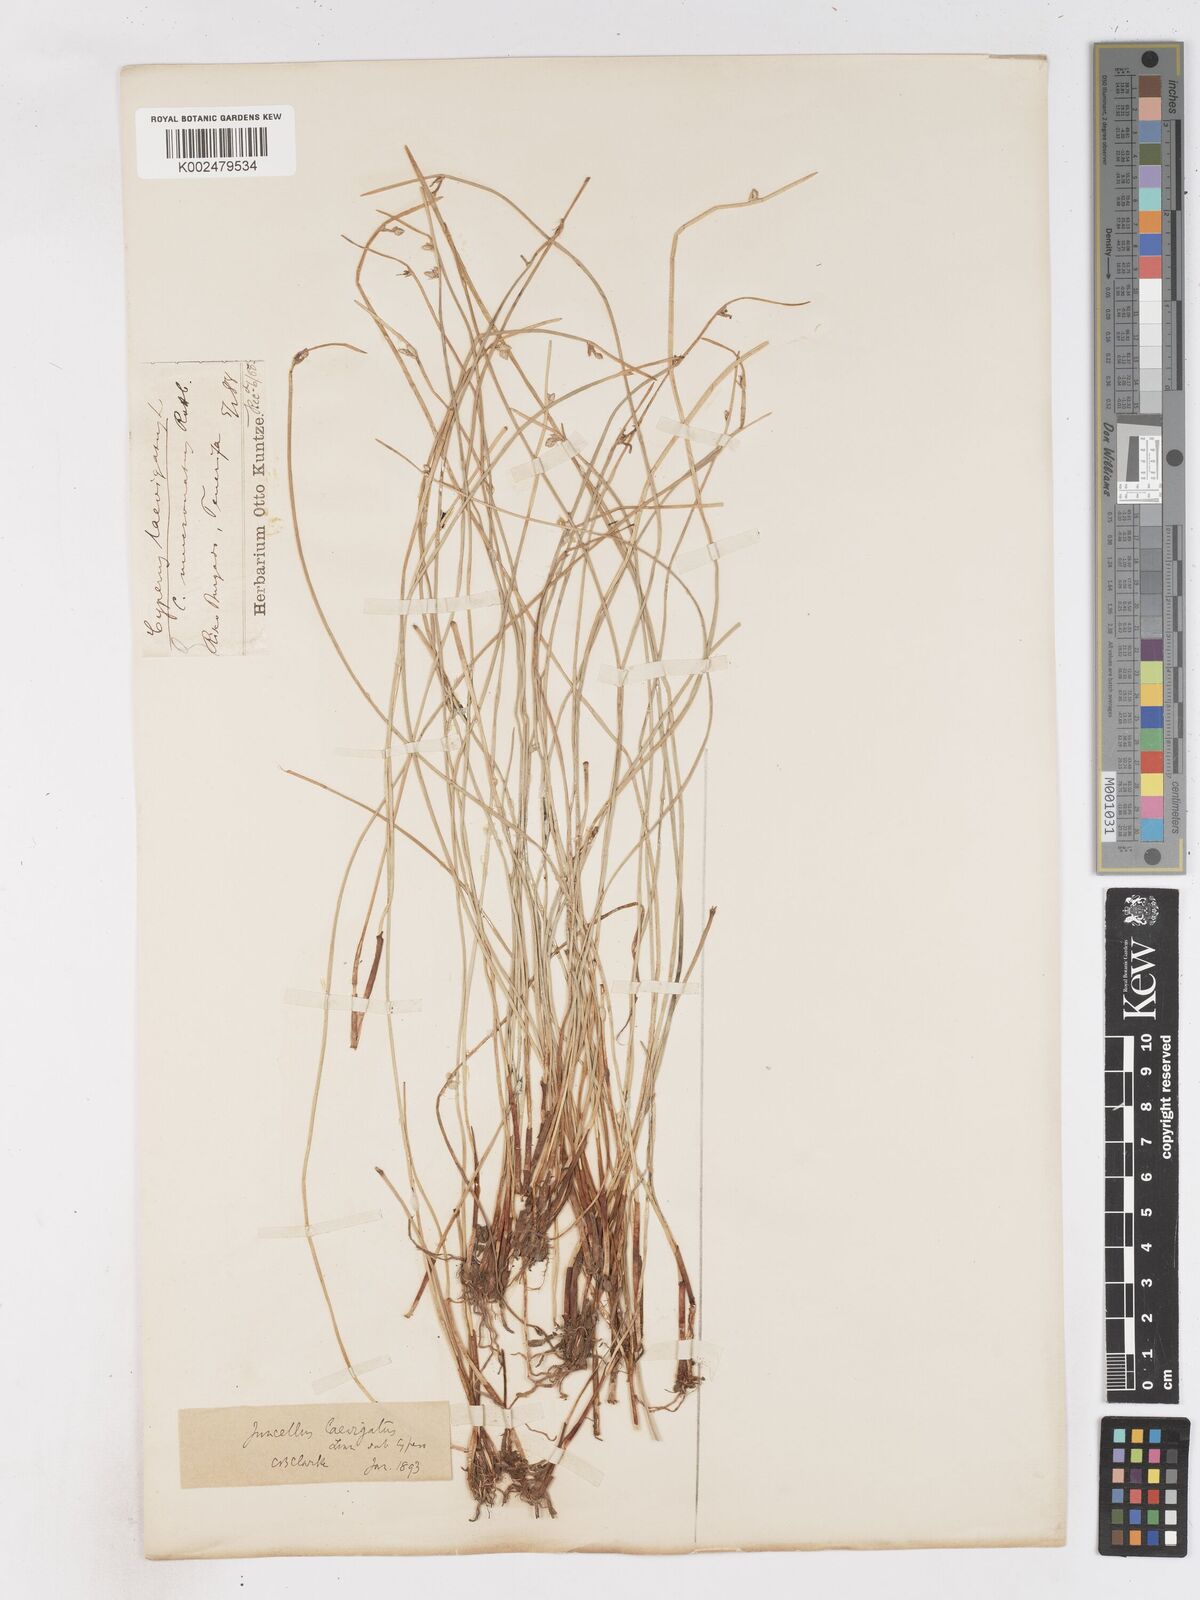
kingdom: Plantae
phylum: Tracheophyta
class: Liliopsida
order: Poales
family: Cyperaceae
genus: Cyperus
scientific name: Cyperus laevigatus
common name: Smooth flat sedge
